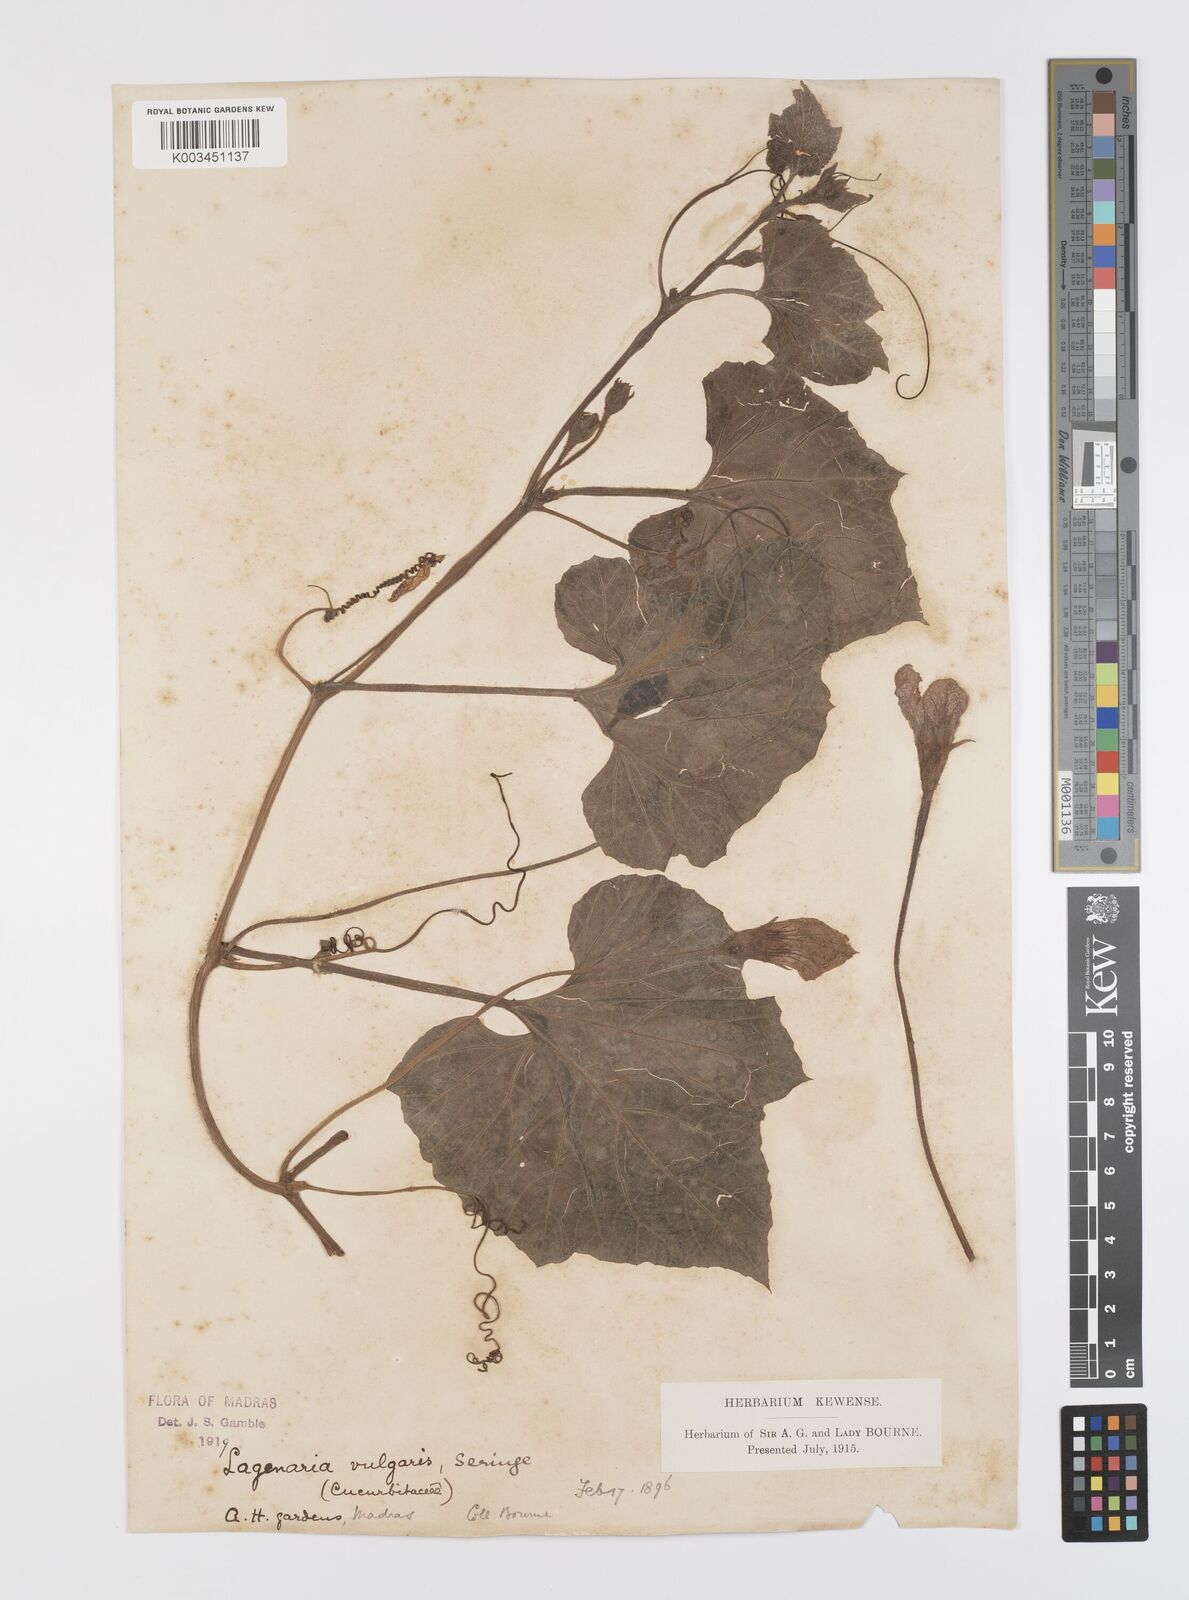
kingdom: Plantae
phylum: Tracheophyta
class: Magnoliopsida
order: Cucurbitales
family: Cucurbitaceae
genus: Lagenaria
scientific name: Lagenaria siceraria
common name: Bottle gourd
